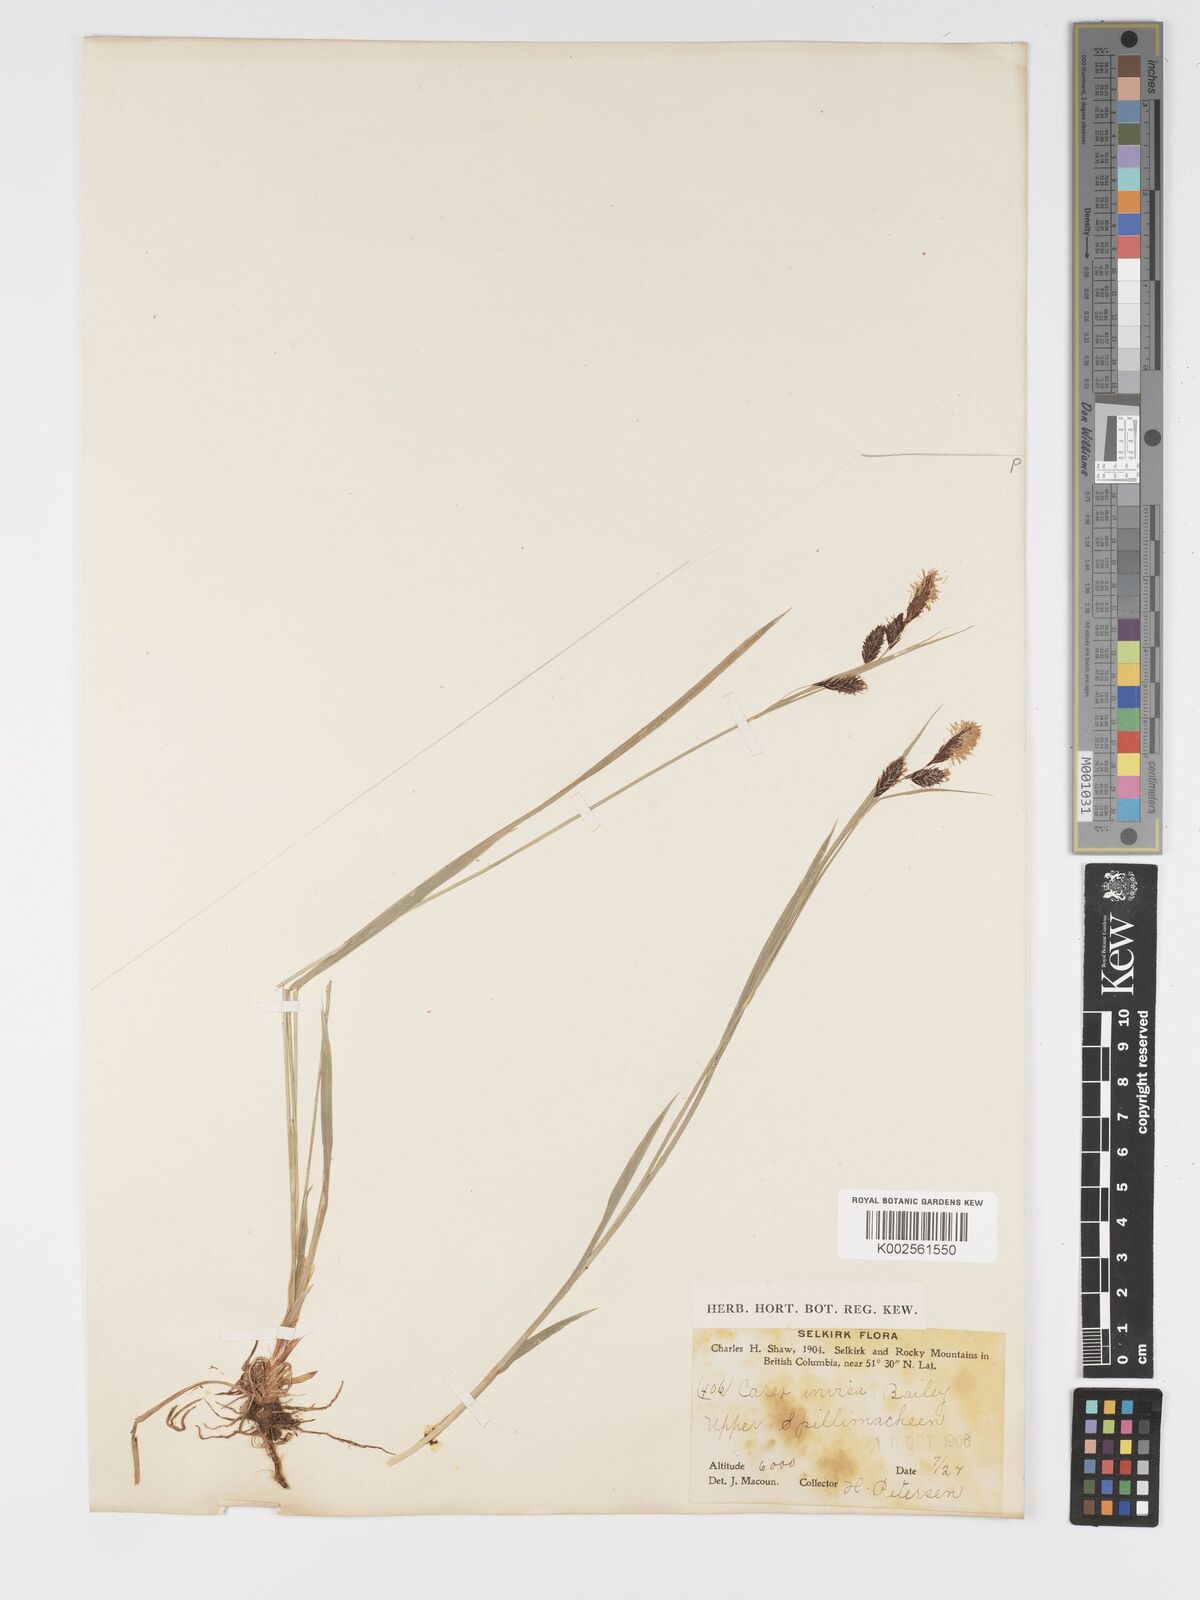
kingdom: Plantae
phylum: Tracheophyta
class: Liliopsida
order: Poales
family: Cyperaceae
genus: Carex
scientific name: Carex spectabilis
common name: Northwestern showy sedge
